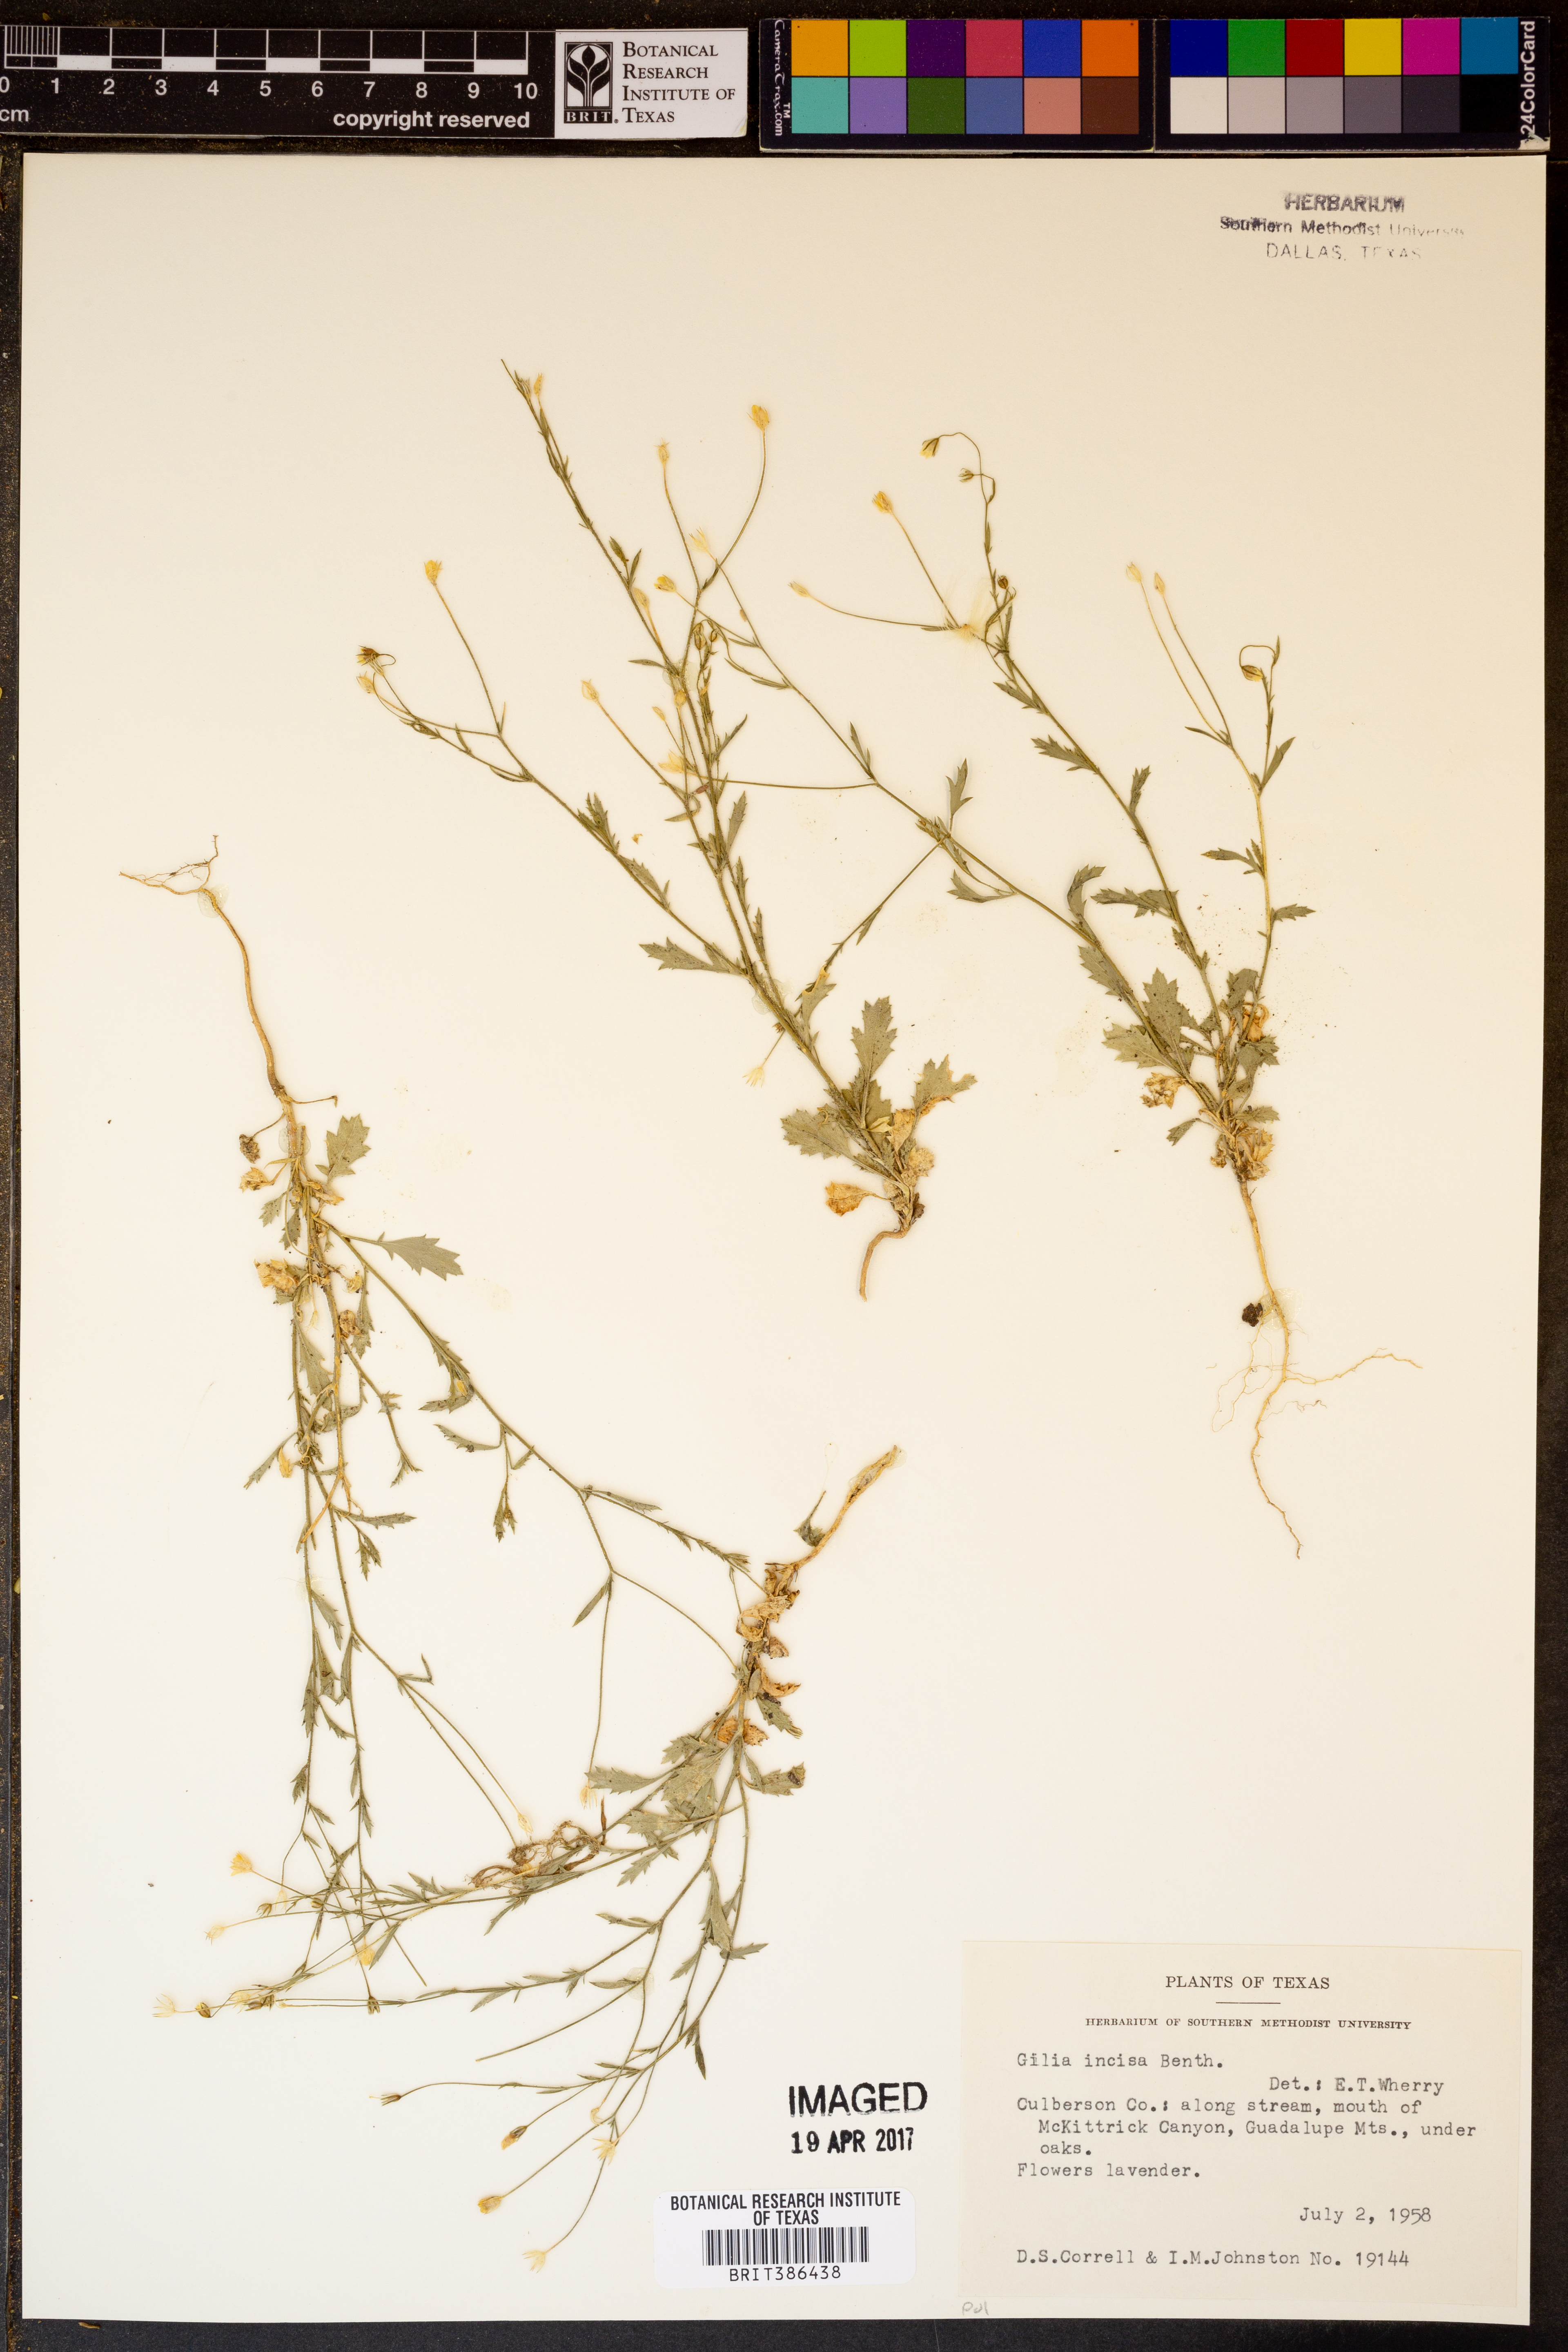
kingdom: Plantae
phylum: Tracheophyta
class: Magnoliopsida
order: Ericales
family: Polemoniaceae
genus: Giliastrum
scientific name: Giliastrum incisum
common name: Splitleaf gilia
